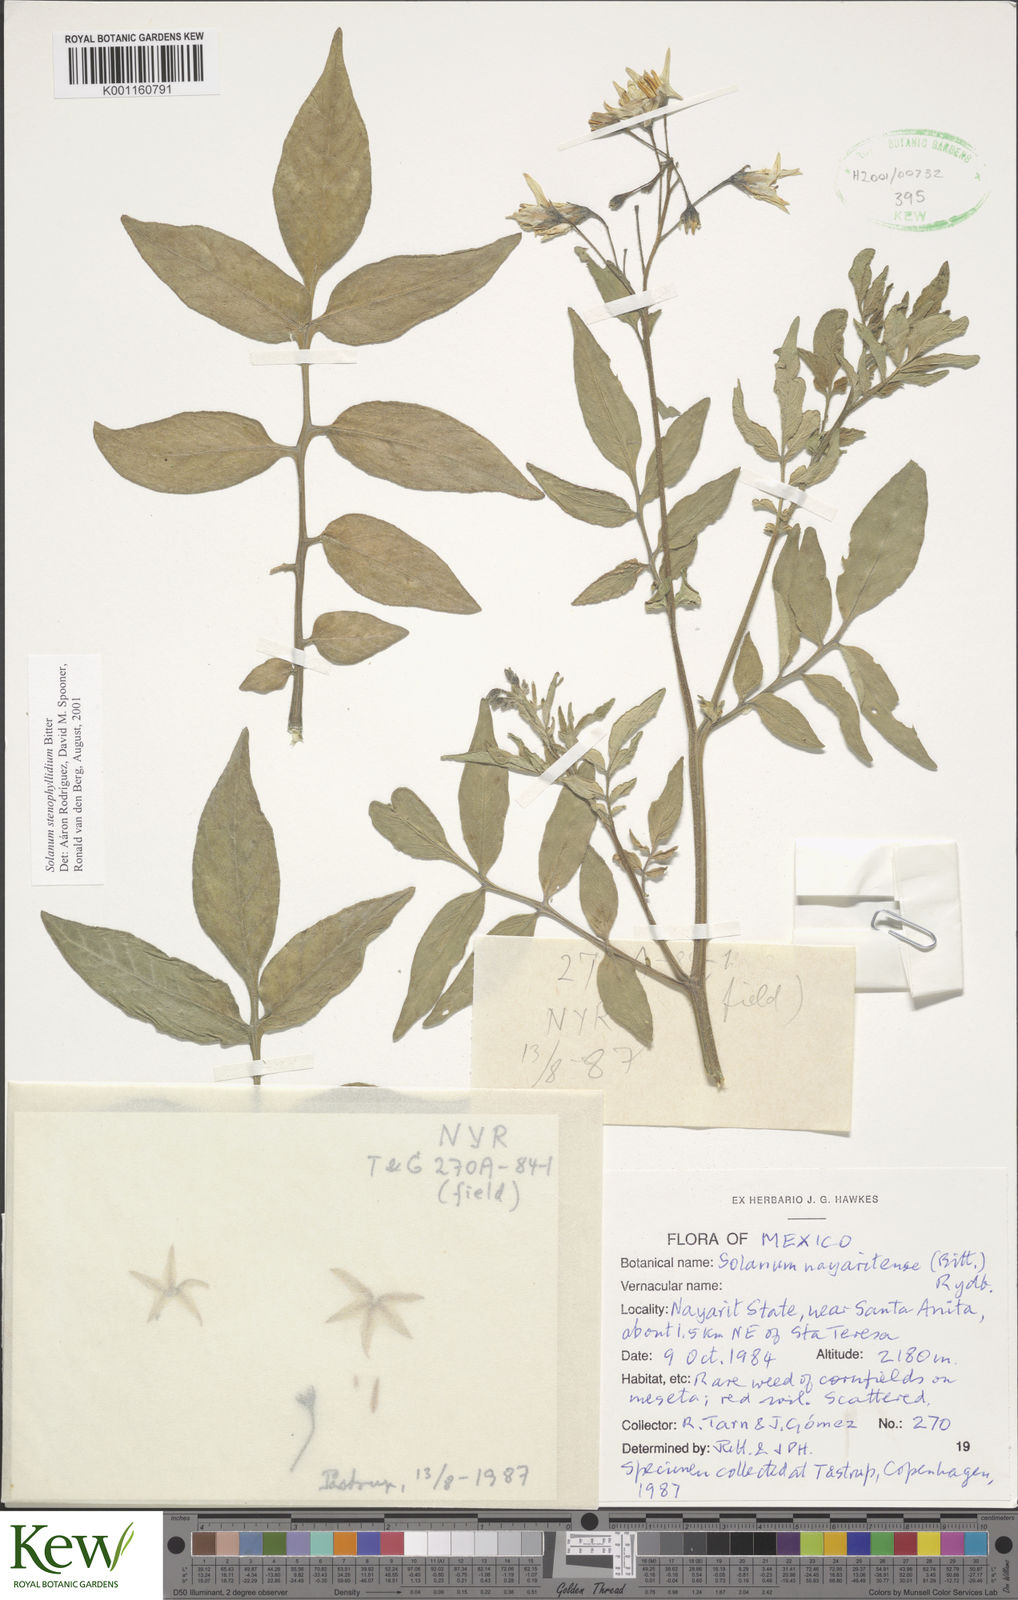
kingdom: Plantae
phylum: Tracheophyta
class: Magnoliopsida
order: Solanales
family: Solanaceae
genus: Solanum
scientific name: Solanum stenophyllidium
